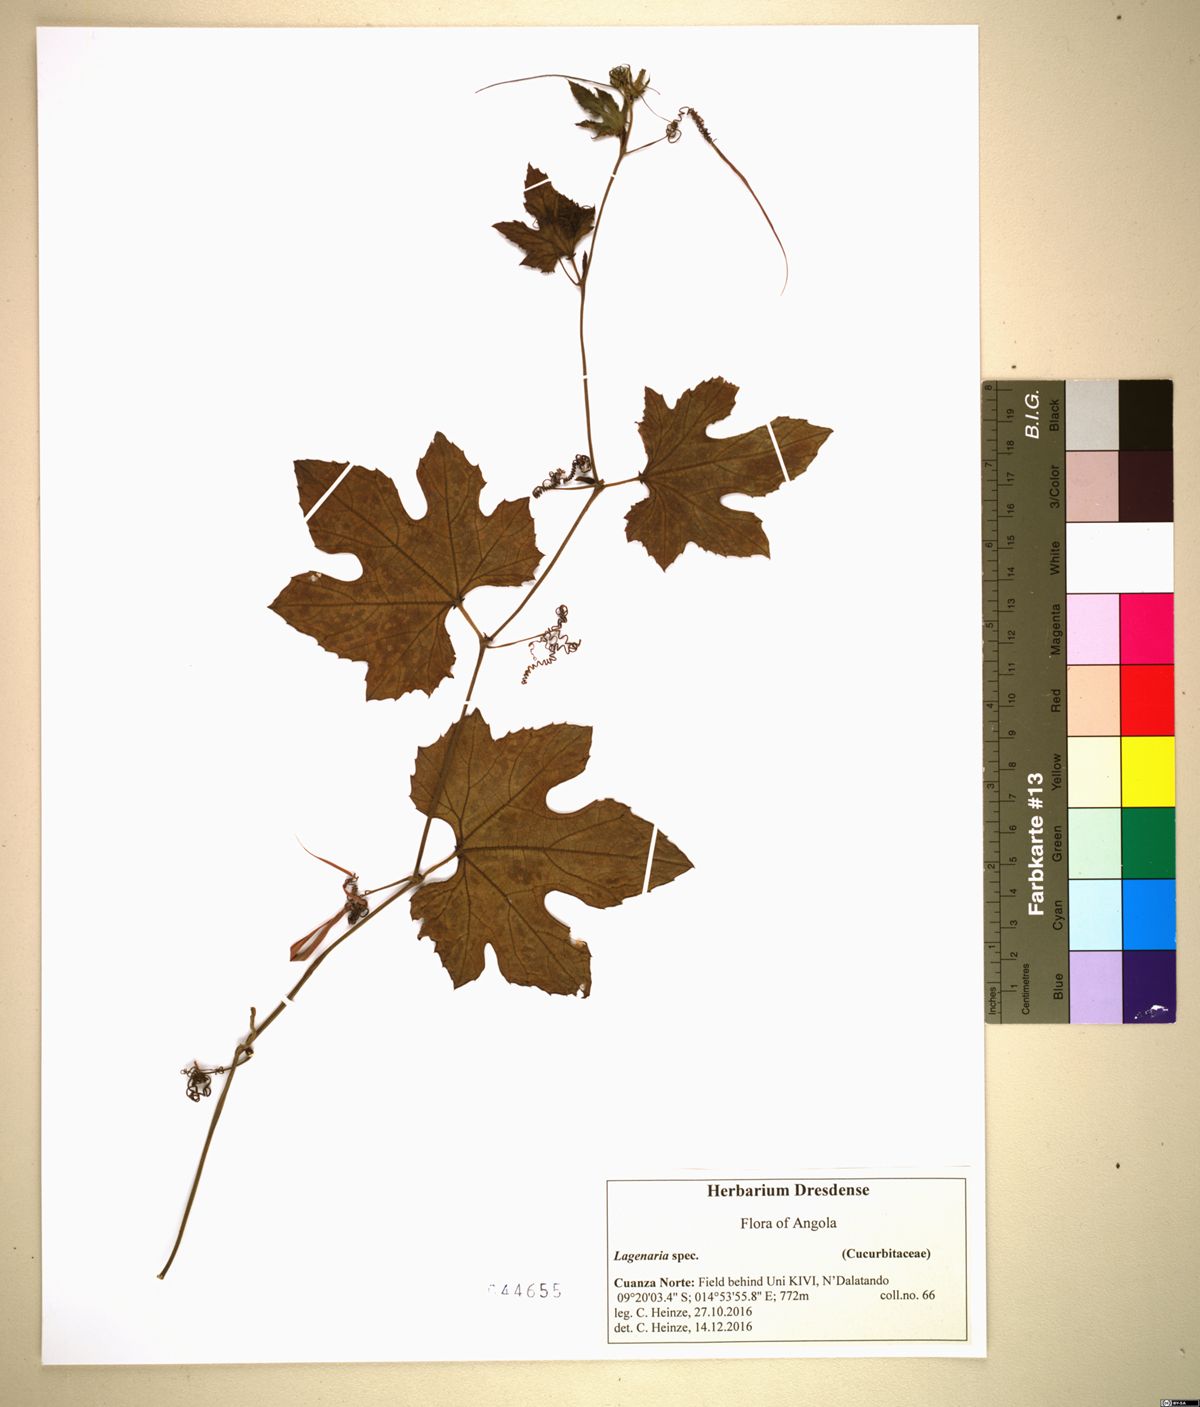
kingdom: Plantae
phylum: Tracheophyta
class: Magnoliopsida
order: Cucurbitales
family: Cucurbitaceae
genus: Lagenaria
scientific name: Lagenaria
